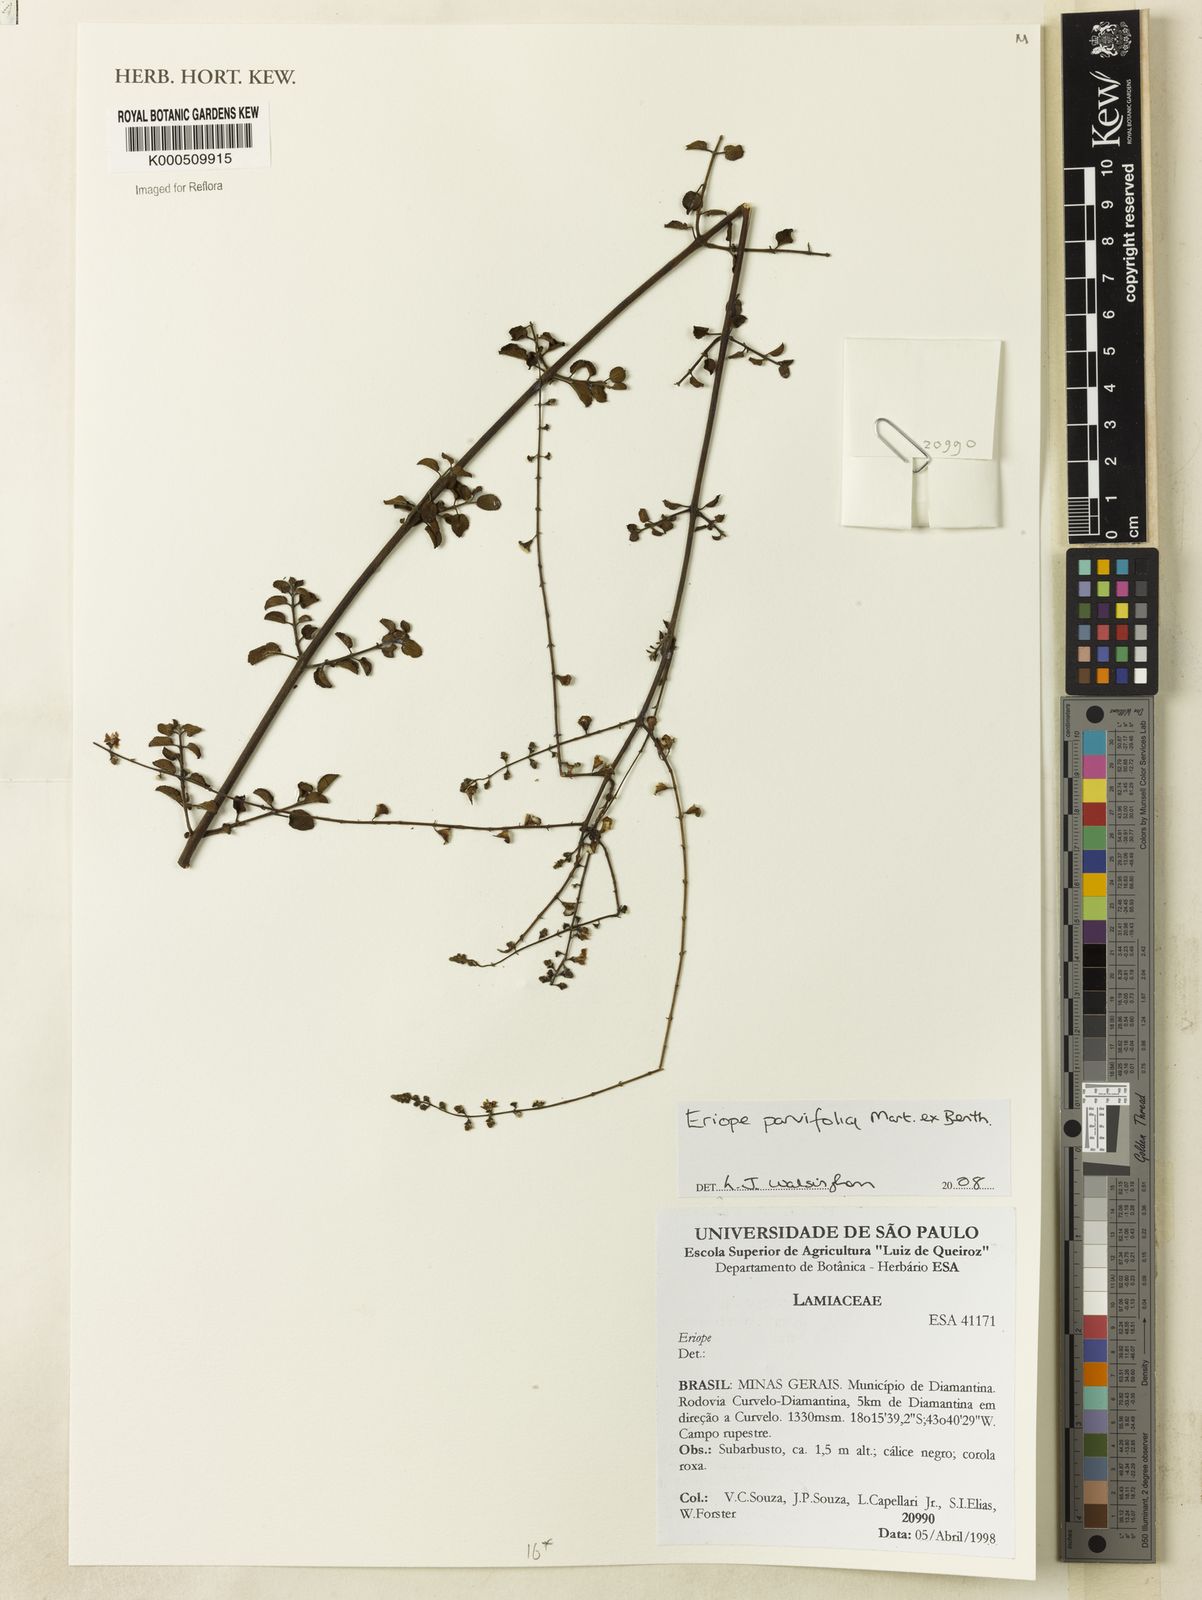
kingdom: Plantae
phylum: Tracheophyta
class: Magnoliopsida
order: Lamiales
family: Lamiaceae
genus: Eriope
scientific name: Eriope parvifolia
